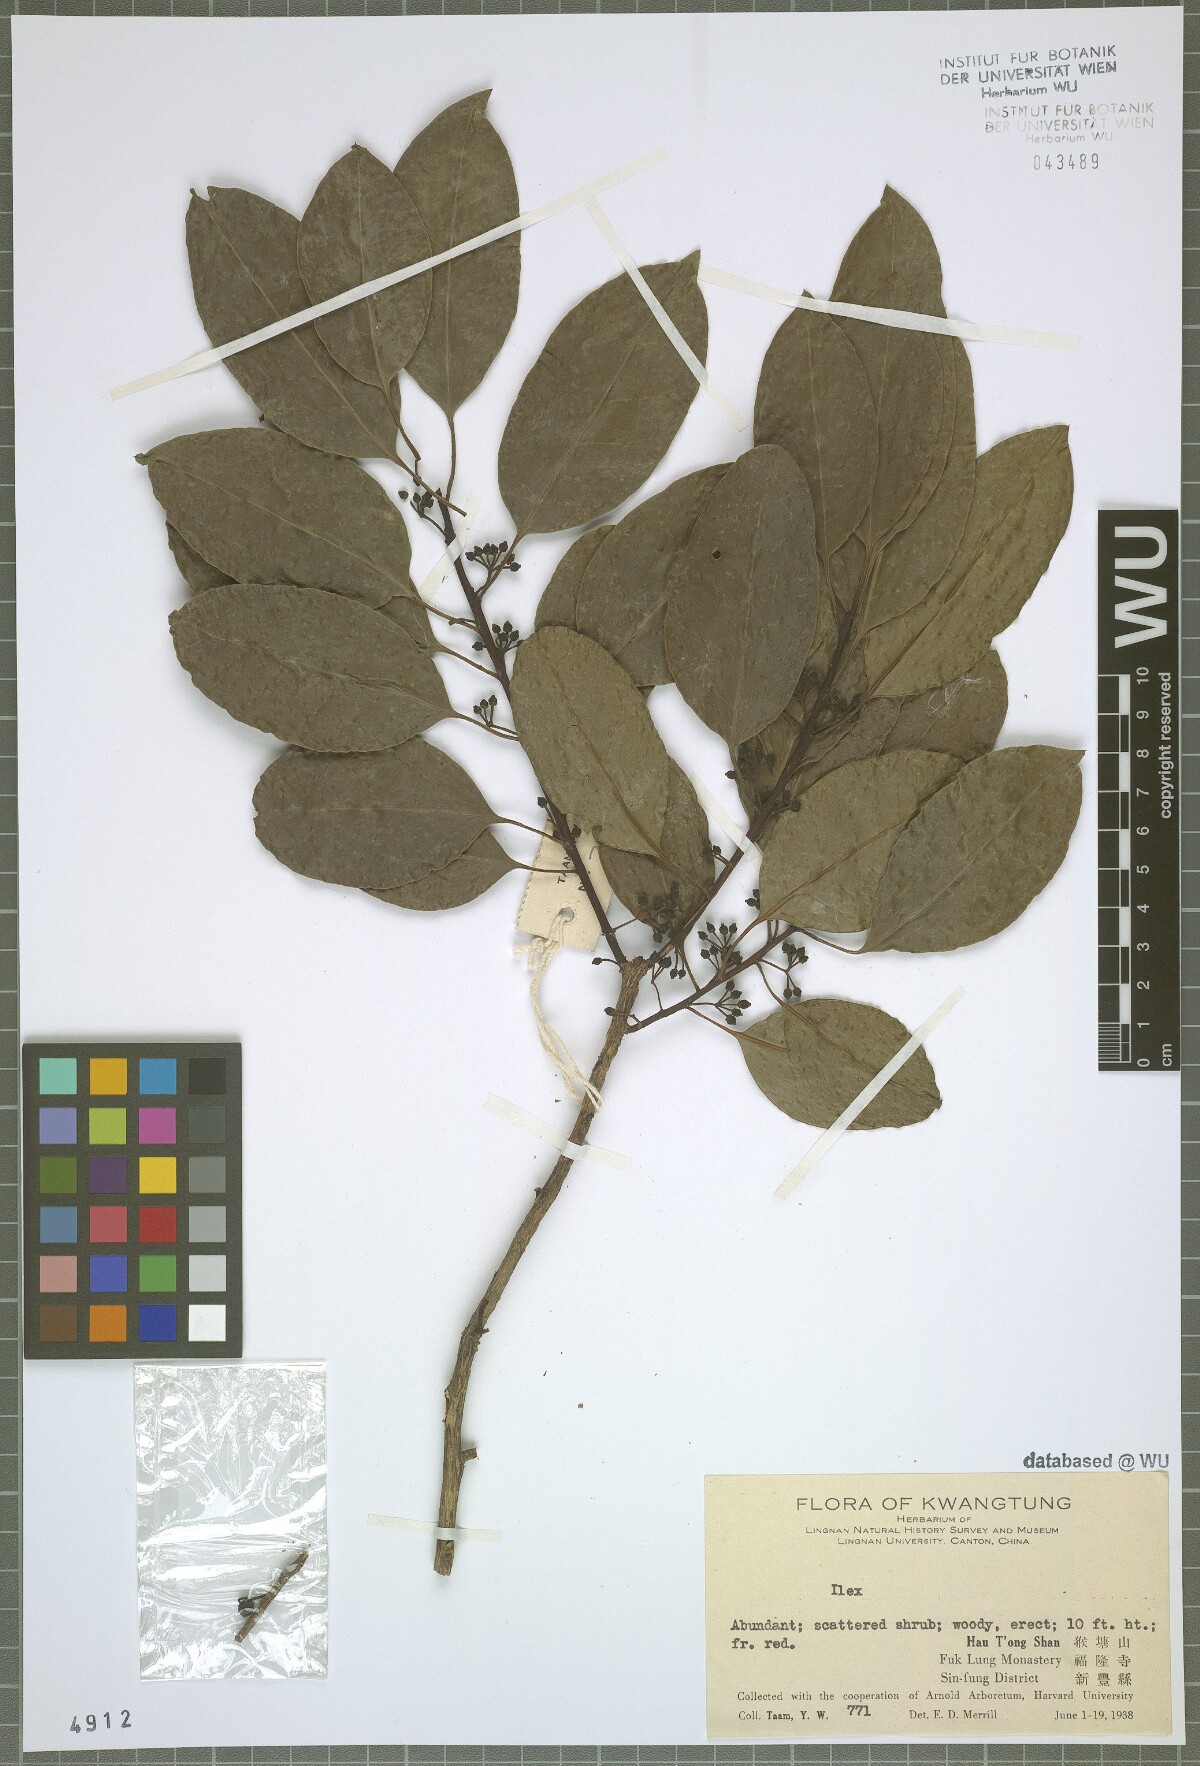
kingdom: Plantae
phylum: Tracheophyta
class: Magnoliopsida
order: Aquifoliales
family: Aquifoliaceae
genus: Ilex
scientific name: Ilex
